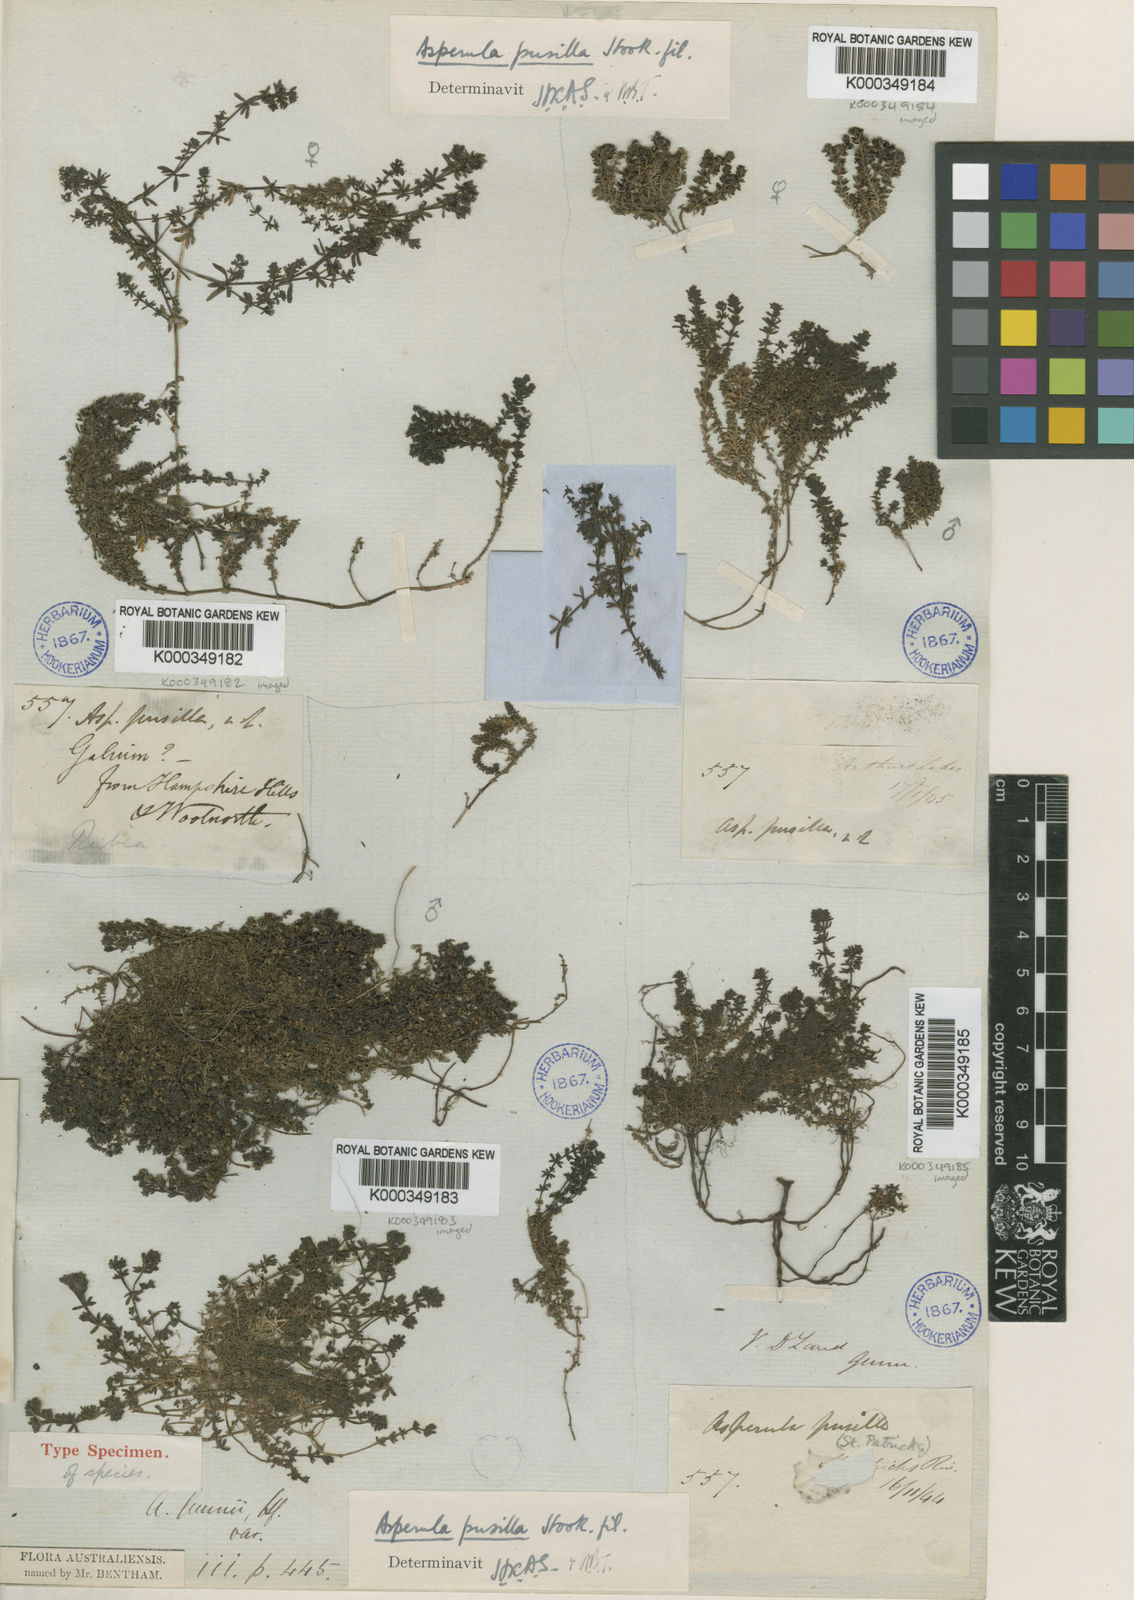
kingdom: Plantae
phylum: Tracheophyta
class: Magnoliopsida
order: Gentianales
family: Rubiaceae
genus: Asperula
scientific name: Asperula pusilla
